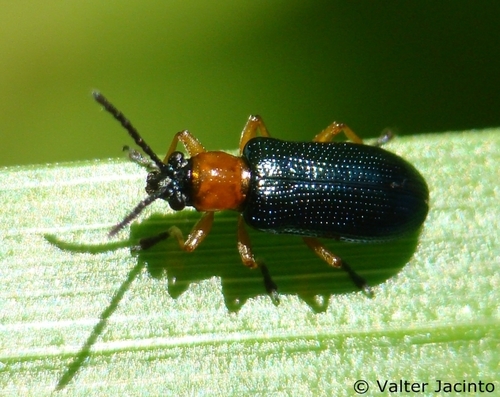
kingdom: Animalia
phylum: Arthropoda
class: Insecta
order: Coleoptera
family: Chrysomelidae
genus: Oulema
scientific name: Oulema melanopus
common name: Cereal leaf beetle
